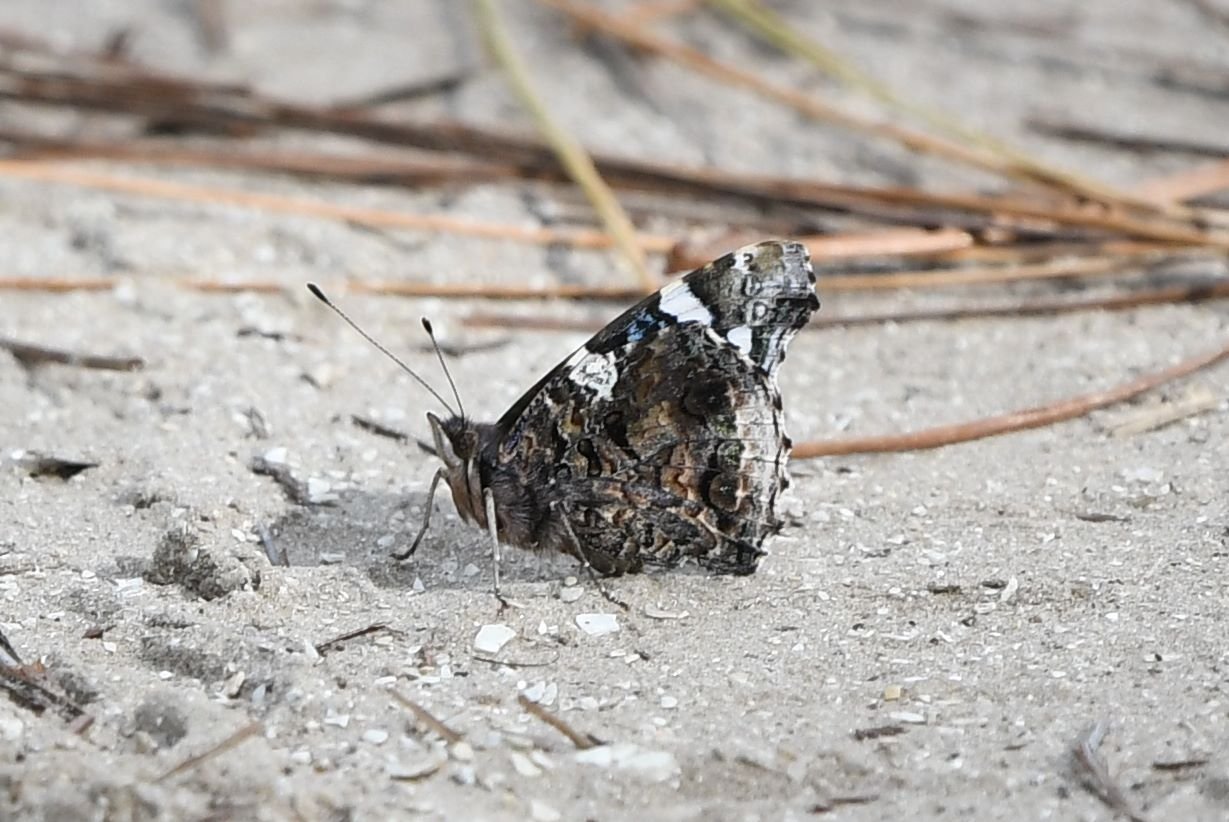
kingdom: Animalia
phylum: Arthropoda
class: Insecta
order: Lepidoptera
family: Nymphalidae
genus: Vanessa
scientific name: Vanessa atalanta
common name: Red Admiral
